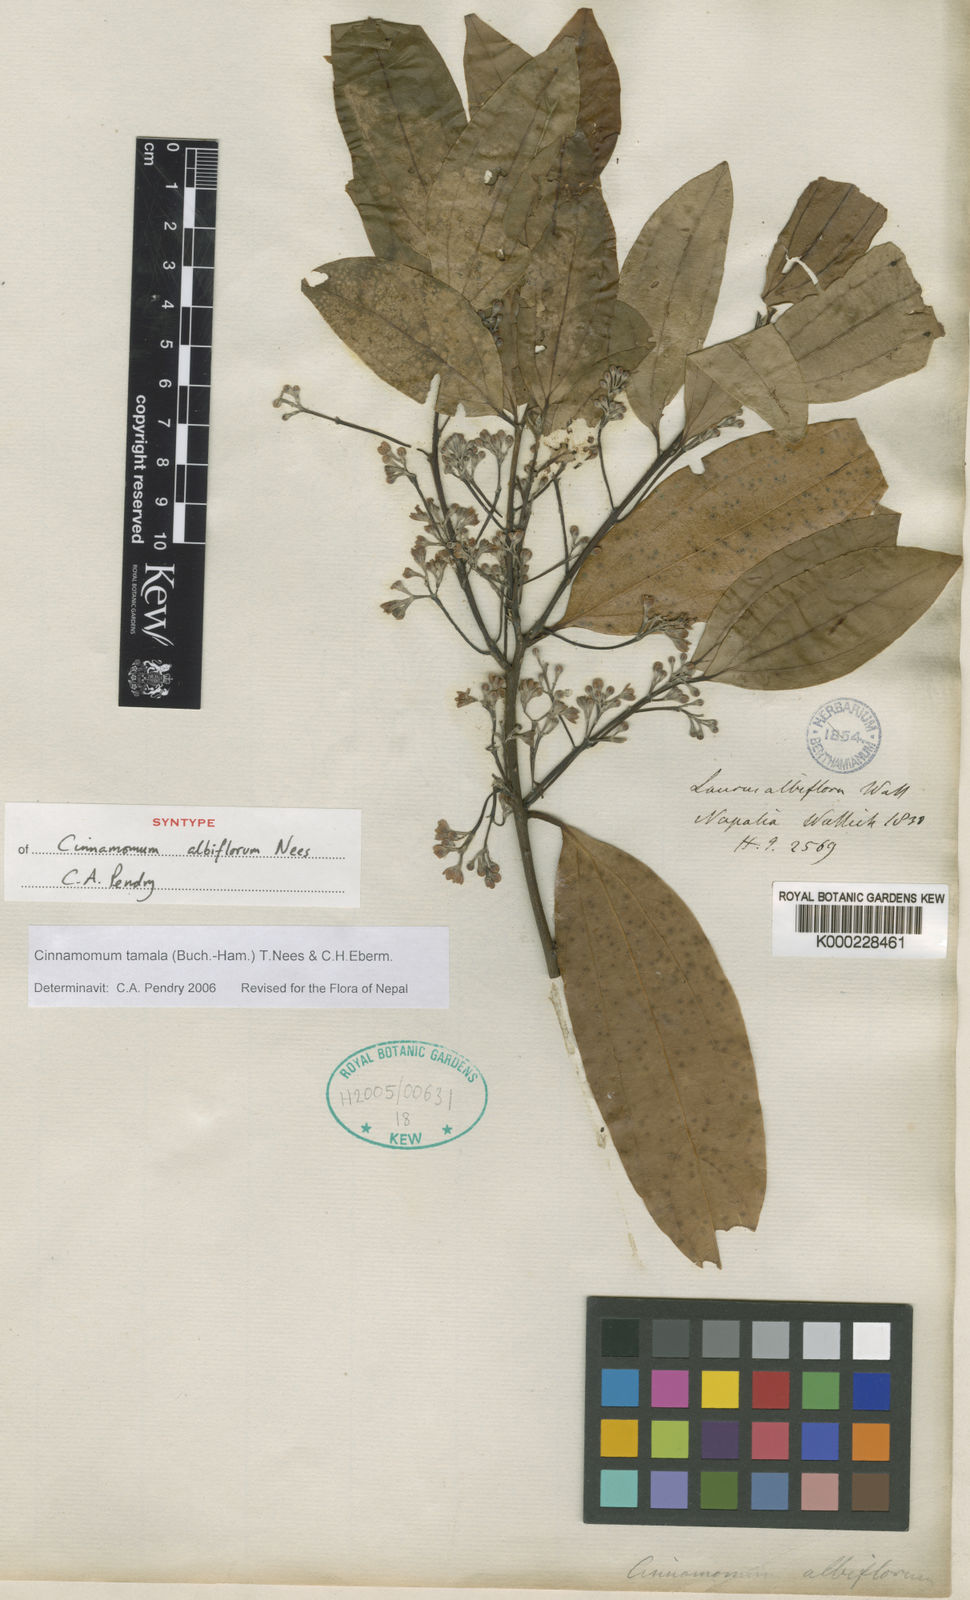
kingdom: Plantae
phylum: Tracheophyta
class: Magnoliopsida
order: Laurales
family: Lauraceae
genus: Cinnamomum
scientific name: Cinnamomum tamala
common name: Indian bay leaves
